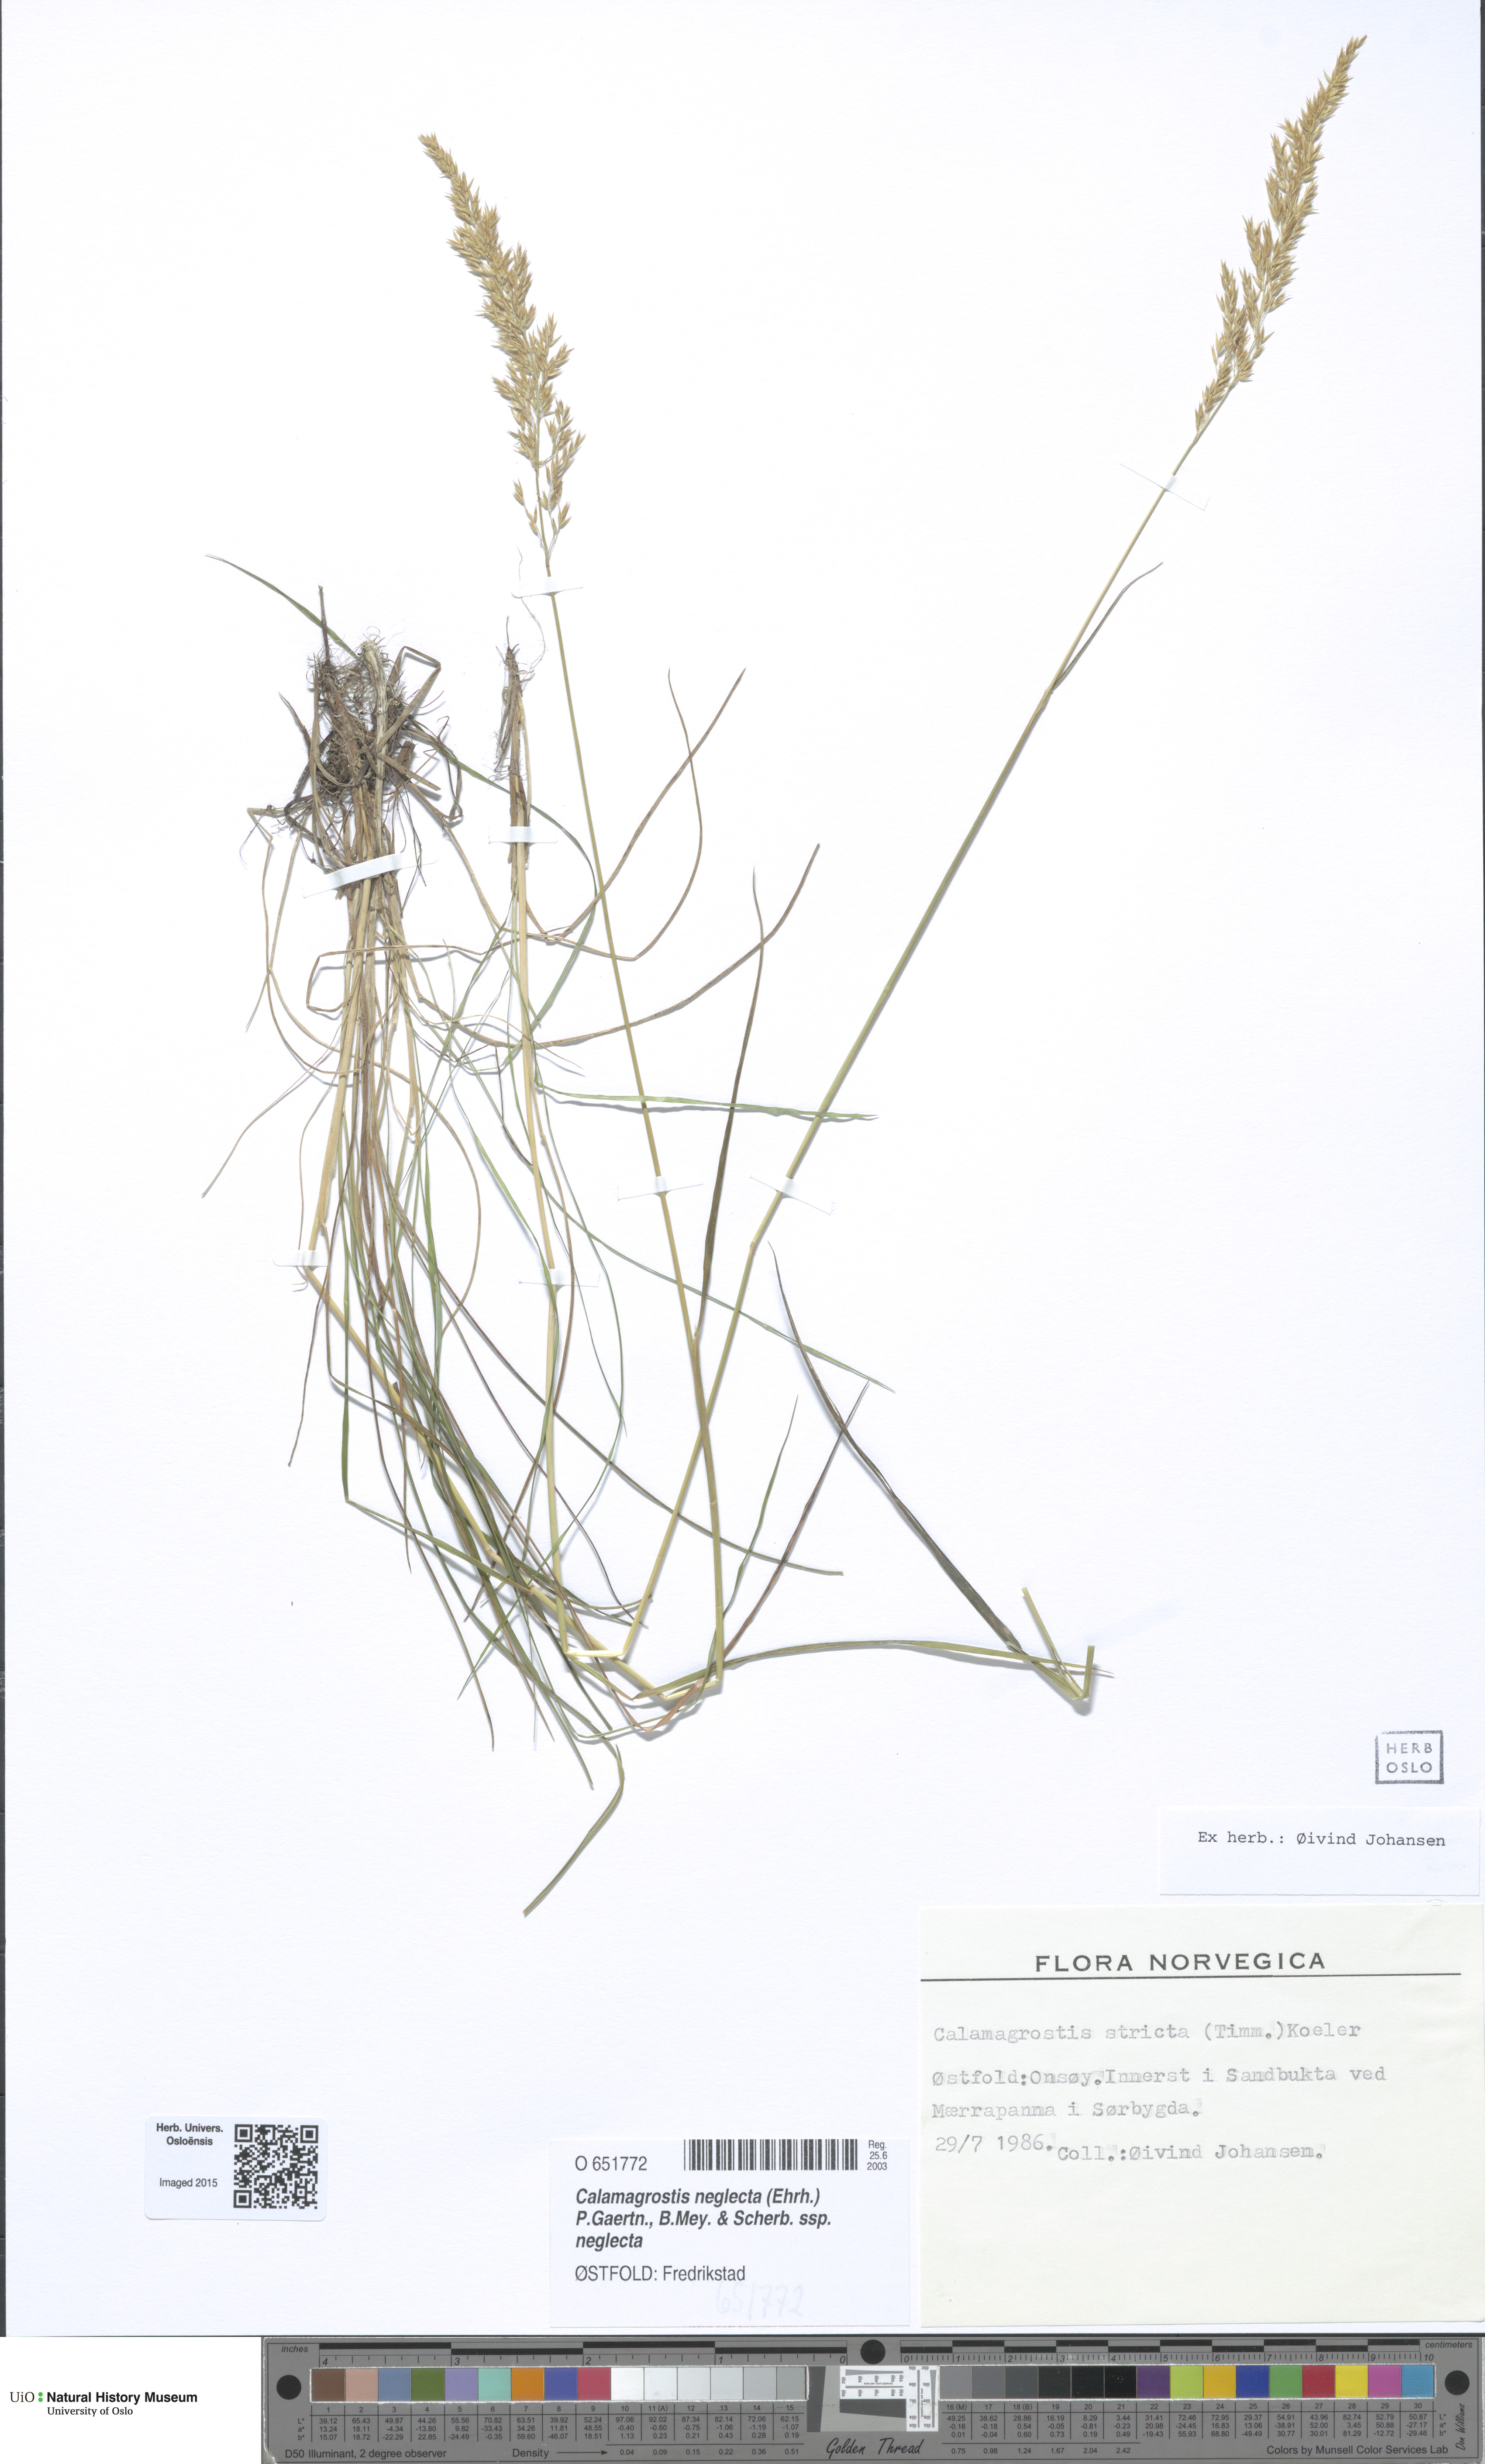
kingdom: Plantae
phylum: Tracheophyta
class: Liliopsida
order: Poales
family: Poaceae
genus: Achnatherum
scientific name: Achnatherum calamagrostis
